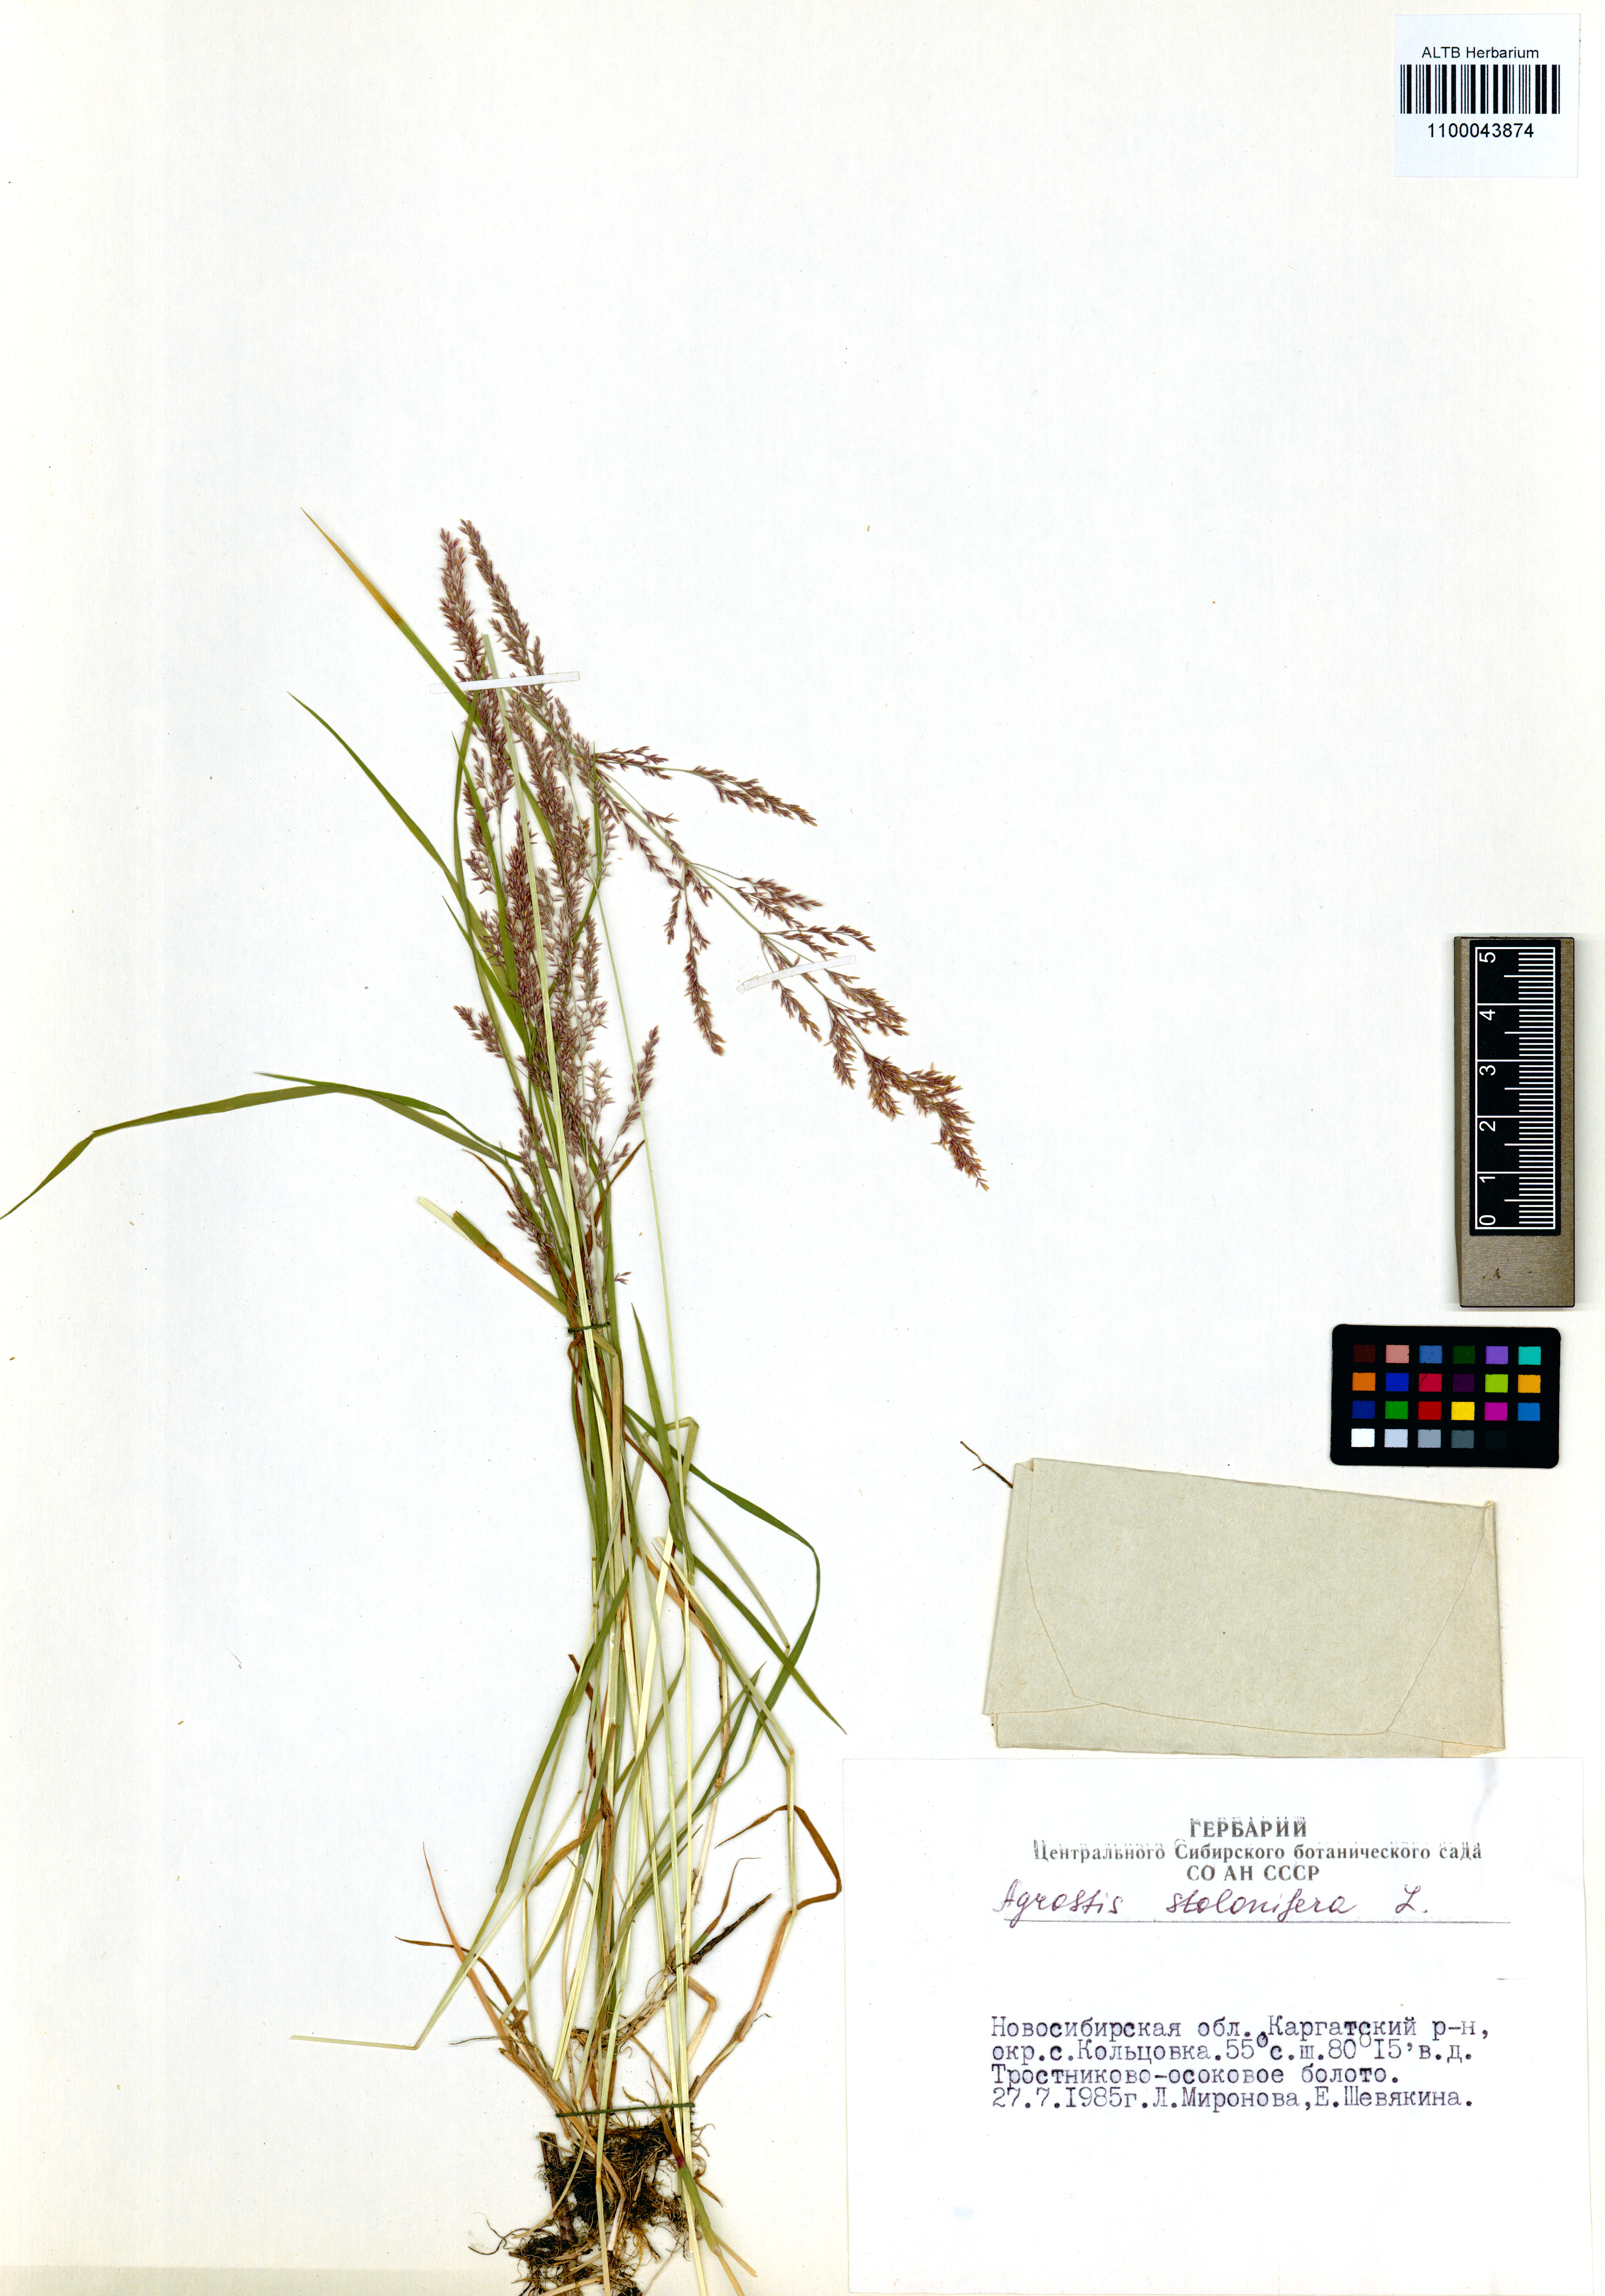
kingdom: Plantae
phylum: Tracheophyta
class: Liliopsida
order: Poales
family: Poaceae
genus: Agrostis
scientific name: Agrostis stolonifera
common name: Creeping bentgrass
